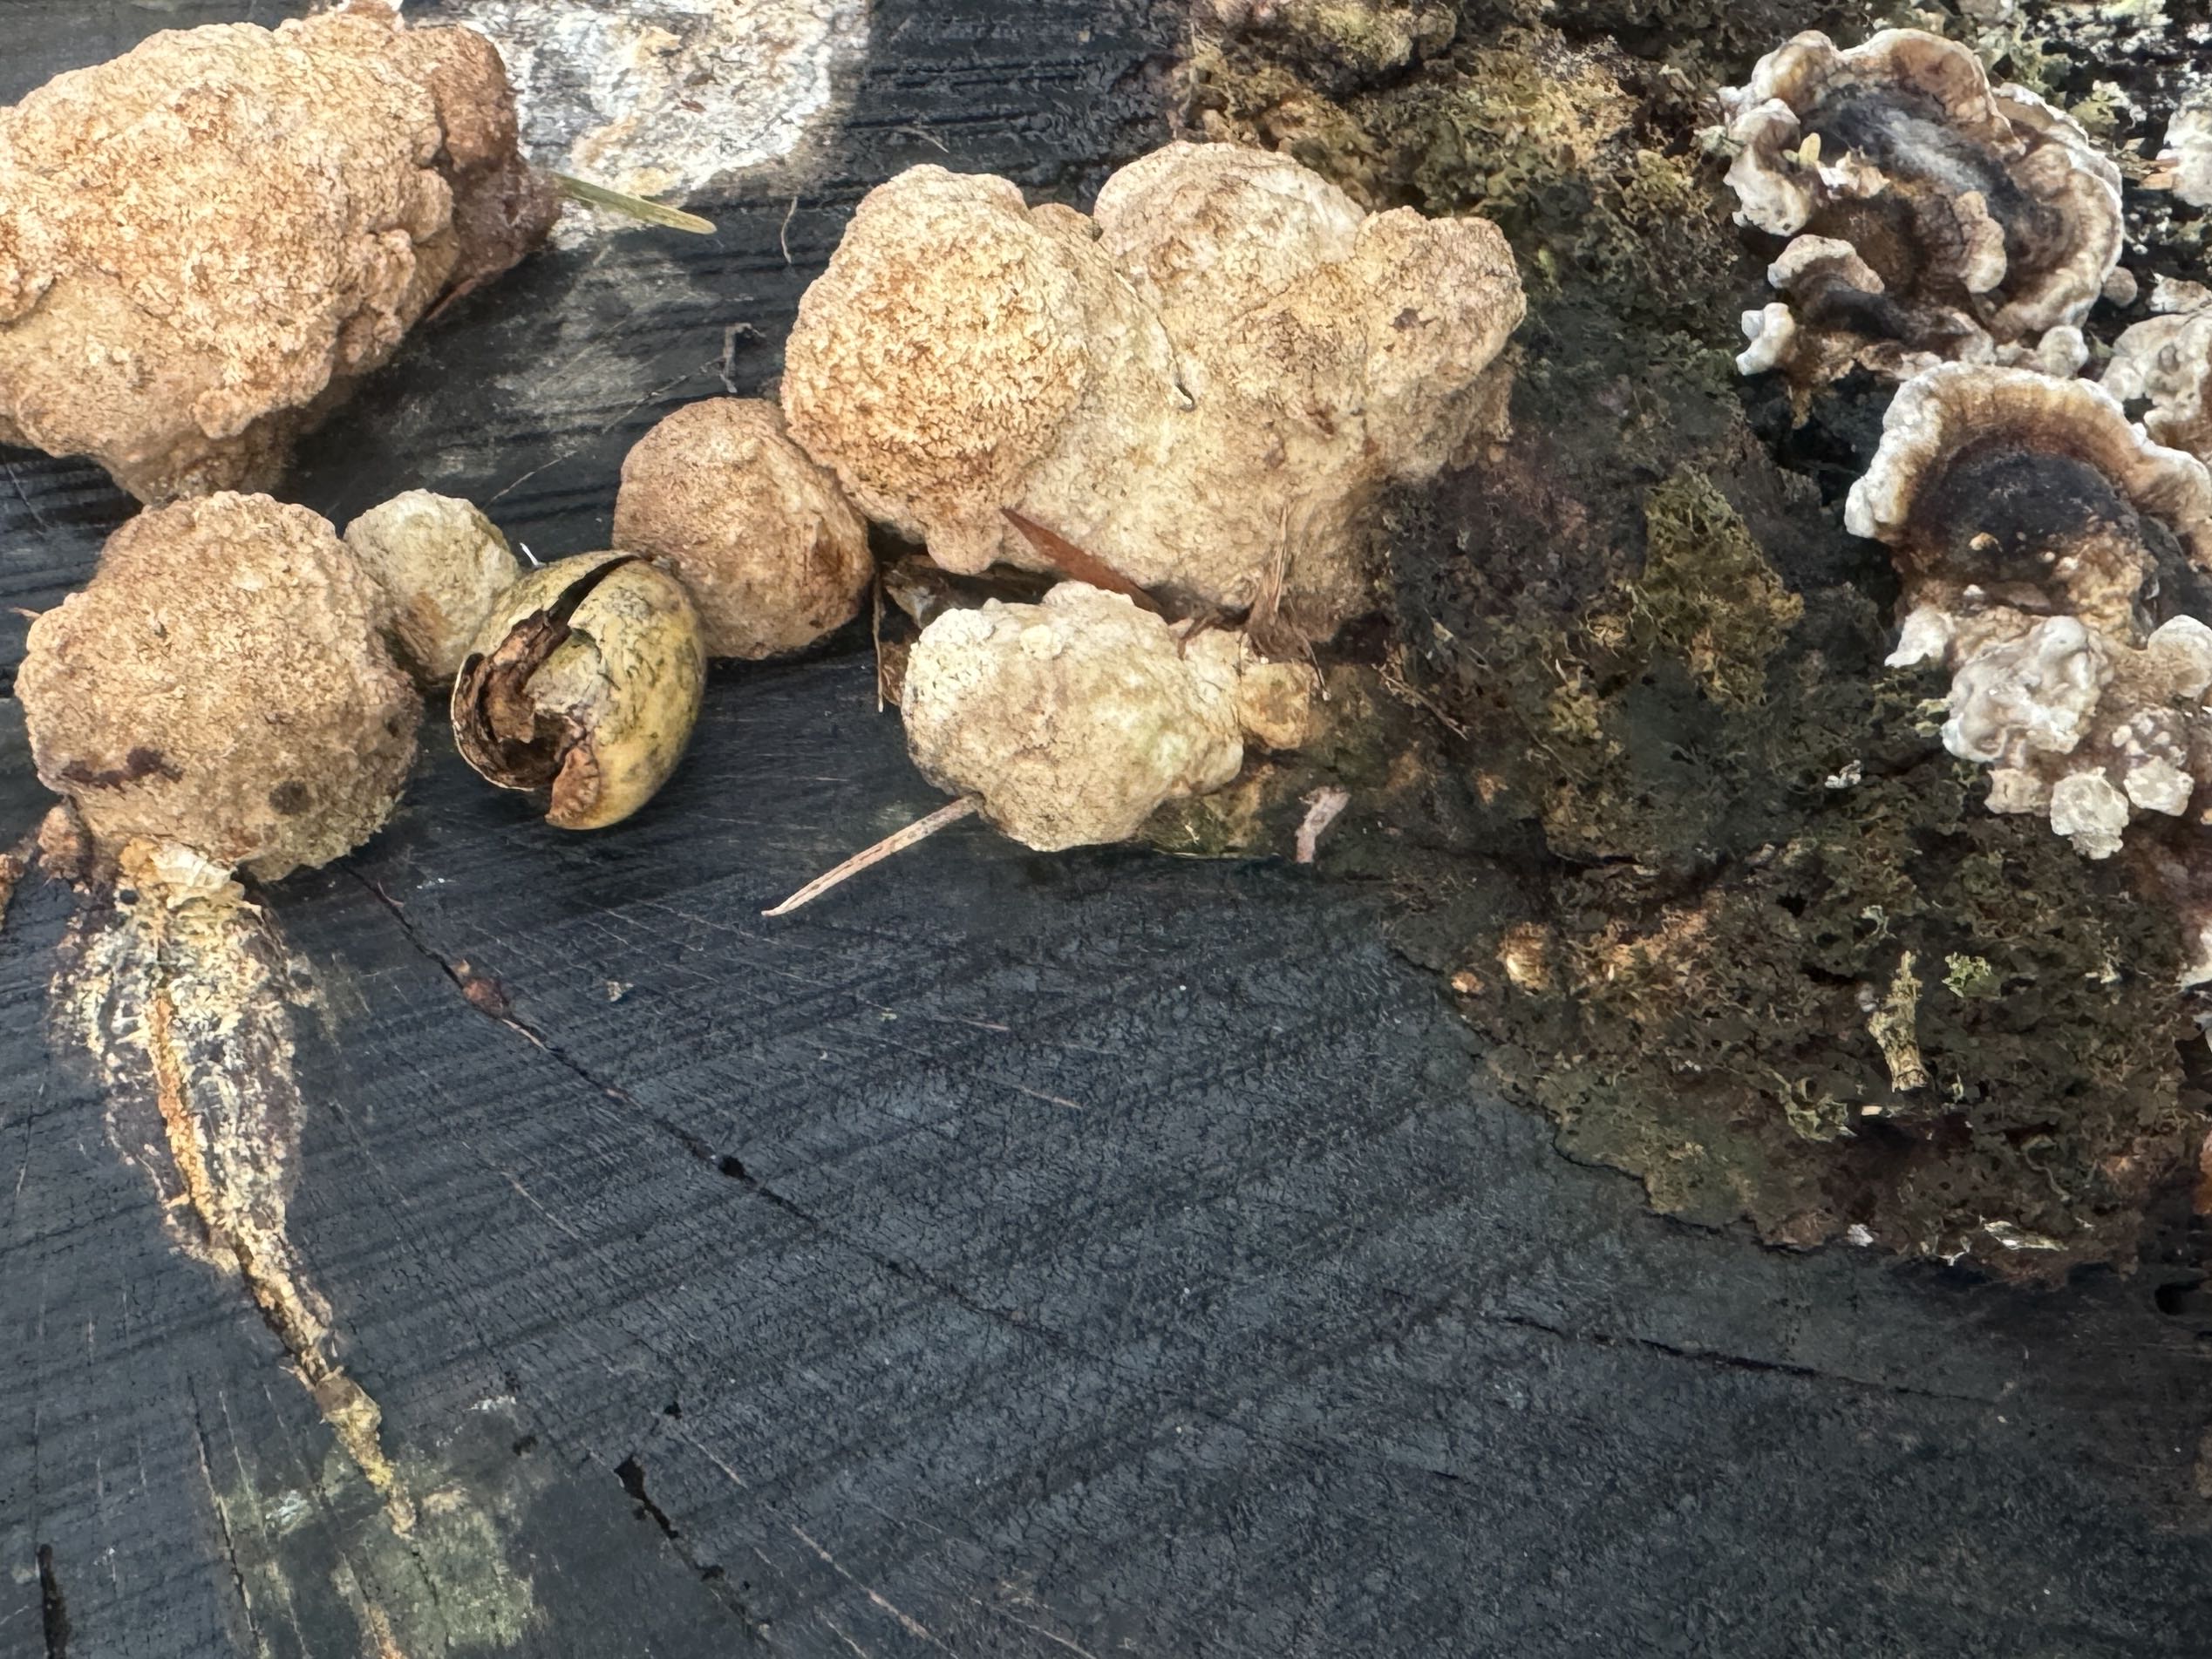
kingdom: Protozoa
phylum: Mycetozoa
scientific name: Mycetozoa
